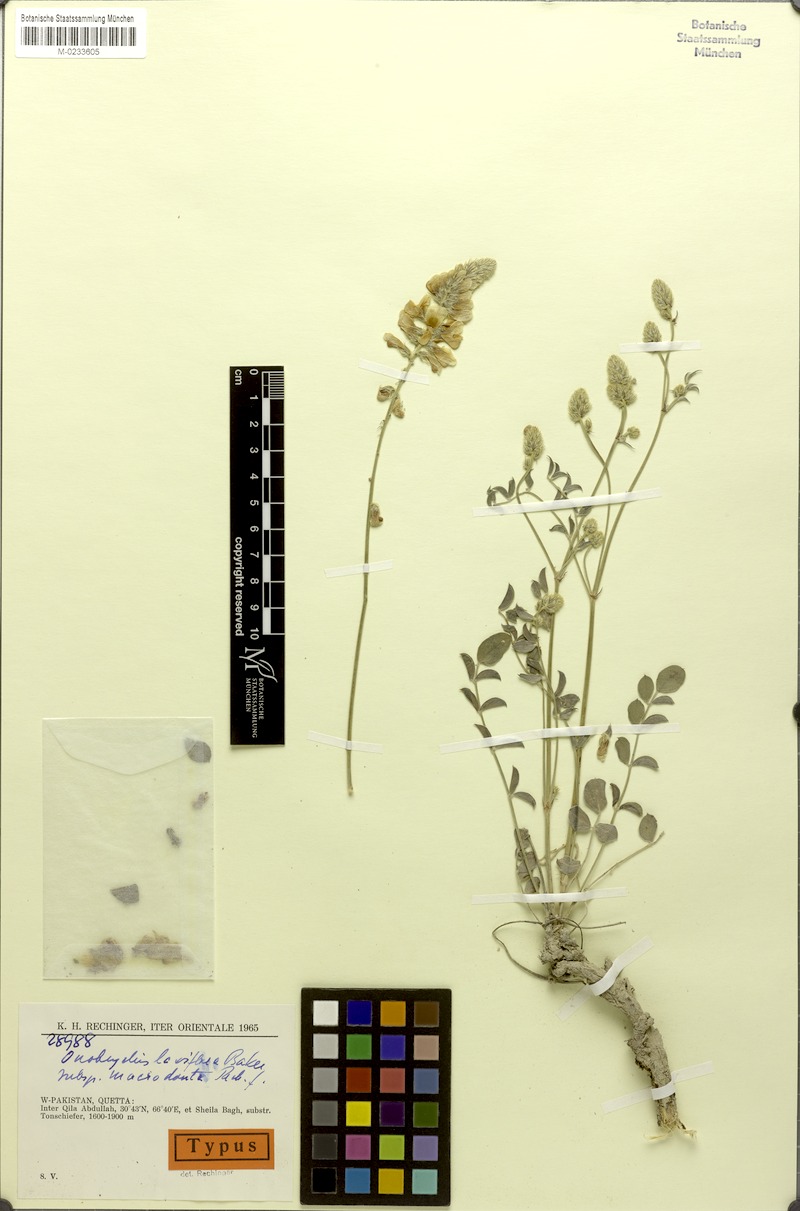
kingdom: Plantae
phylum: Tracheophyta
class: Magnoliopsida
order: Fabales
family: Fabaceae
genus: Onobrychis
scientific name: Onobrychis laxiflora
